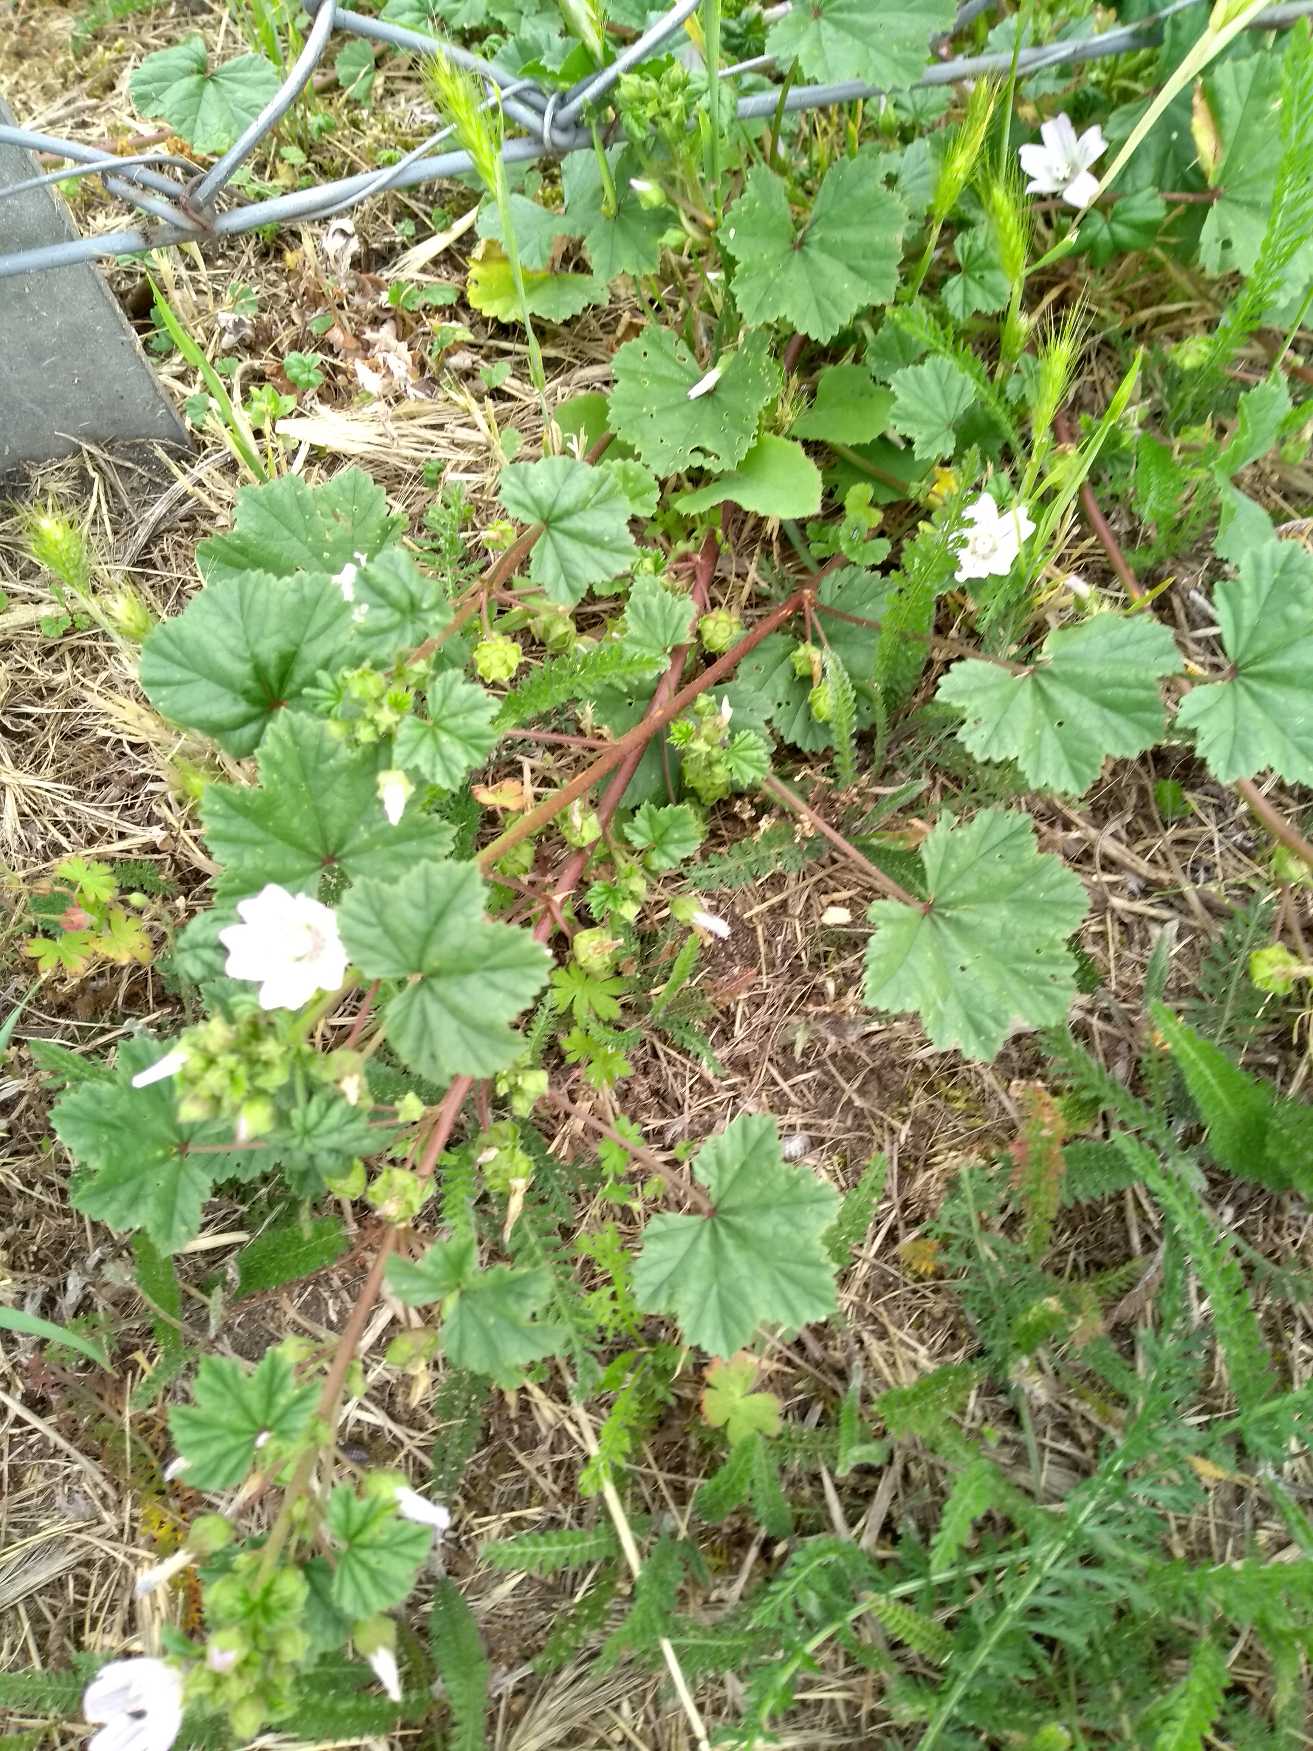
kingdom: Plantae
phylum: Tracheophyta
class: Magnoliopsida
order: Malvales
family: Malvaceae
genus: Malva
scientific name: Malva neglecta
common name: Rundbladet katost
